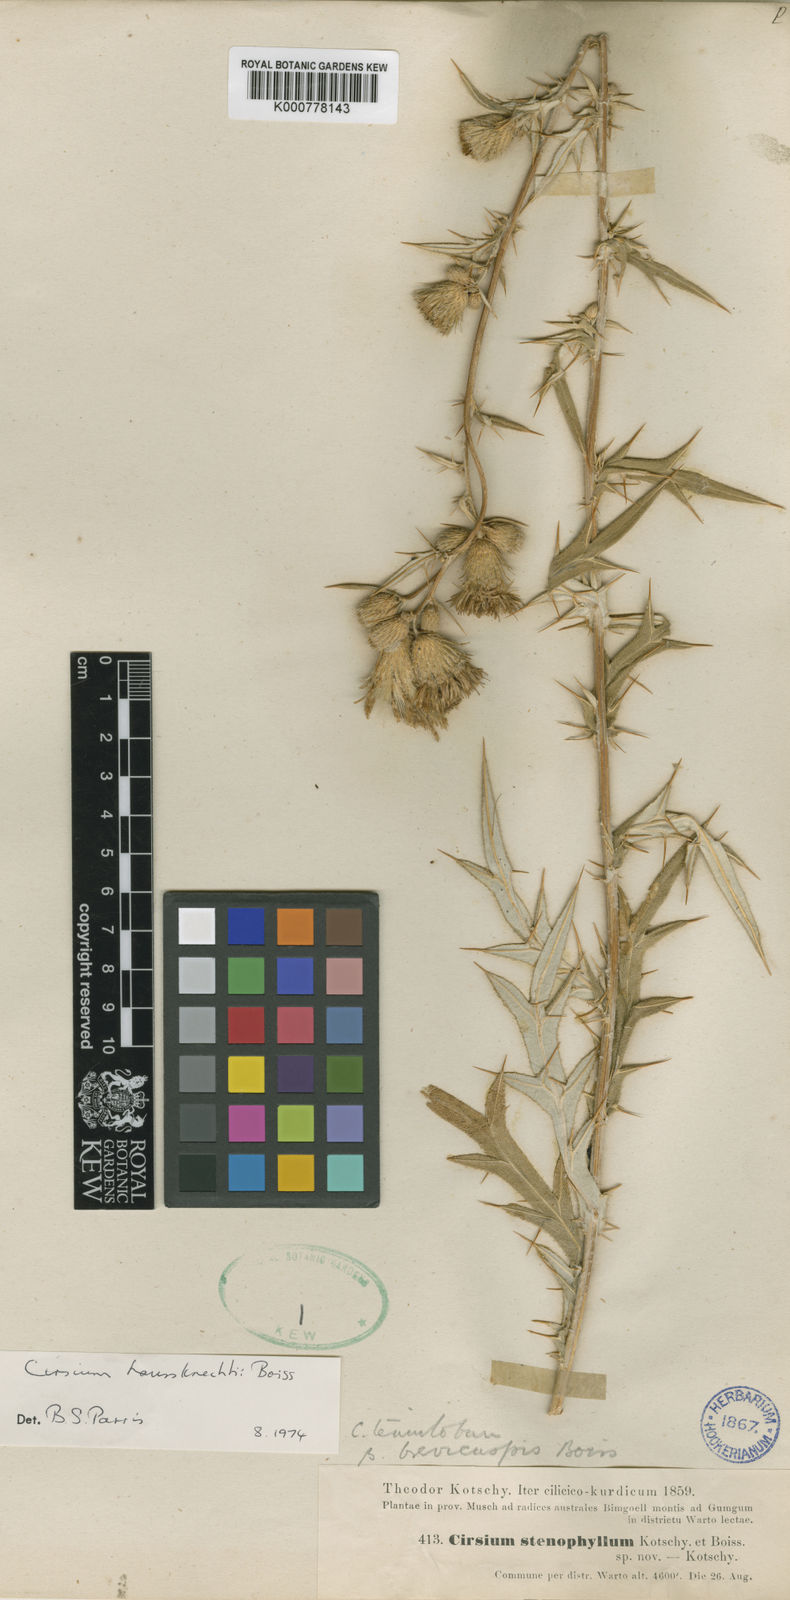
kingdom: Plantae
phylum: Tracheophyta
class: Magnoliopsida
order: Asterales
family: Asteraceae
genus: Cirsium
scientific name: Cirsium shihianum
